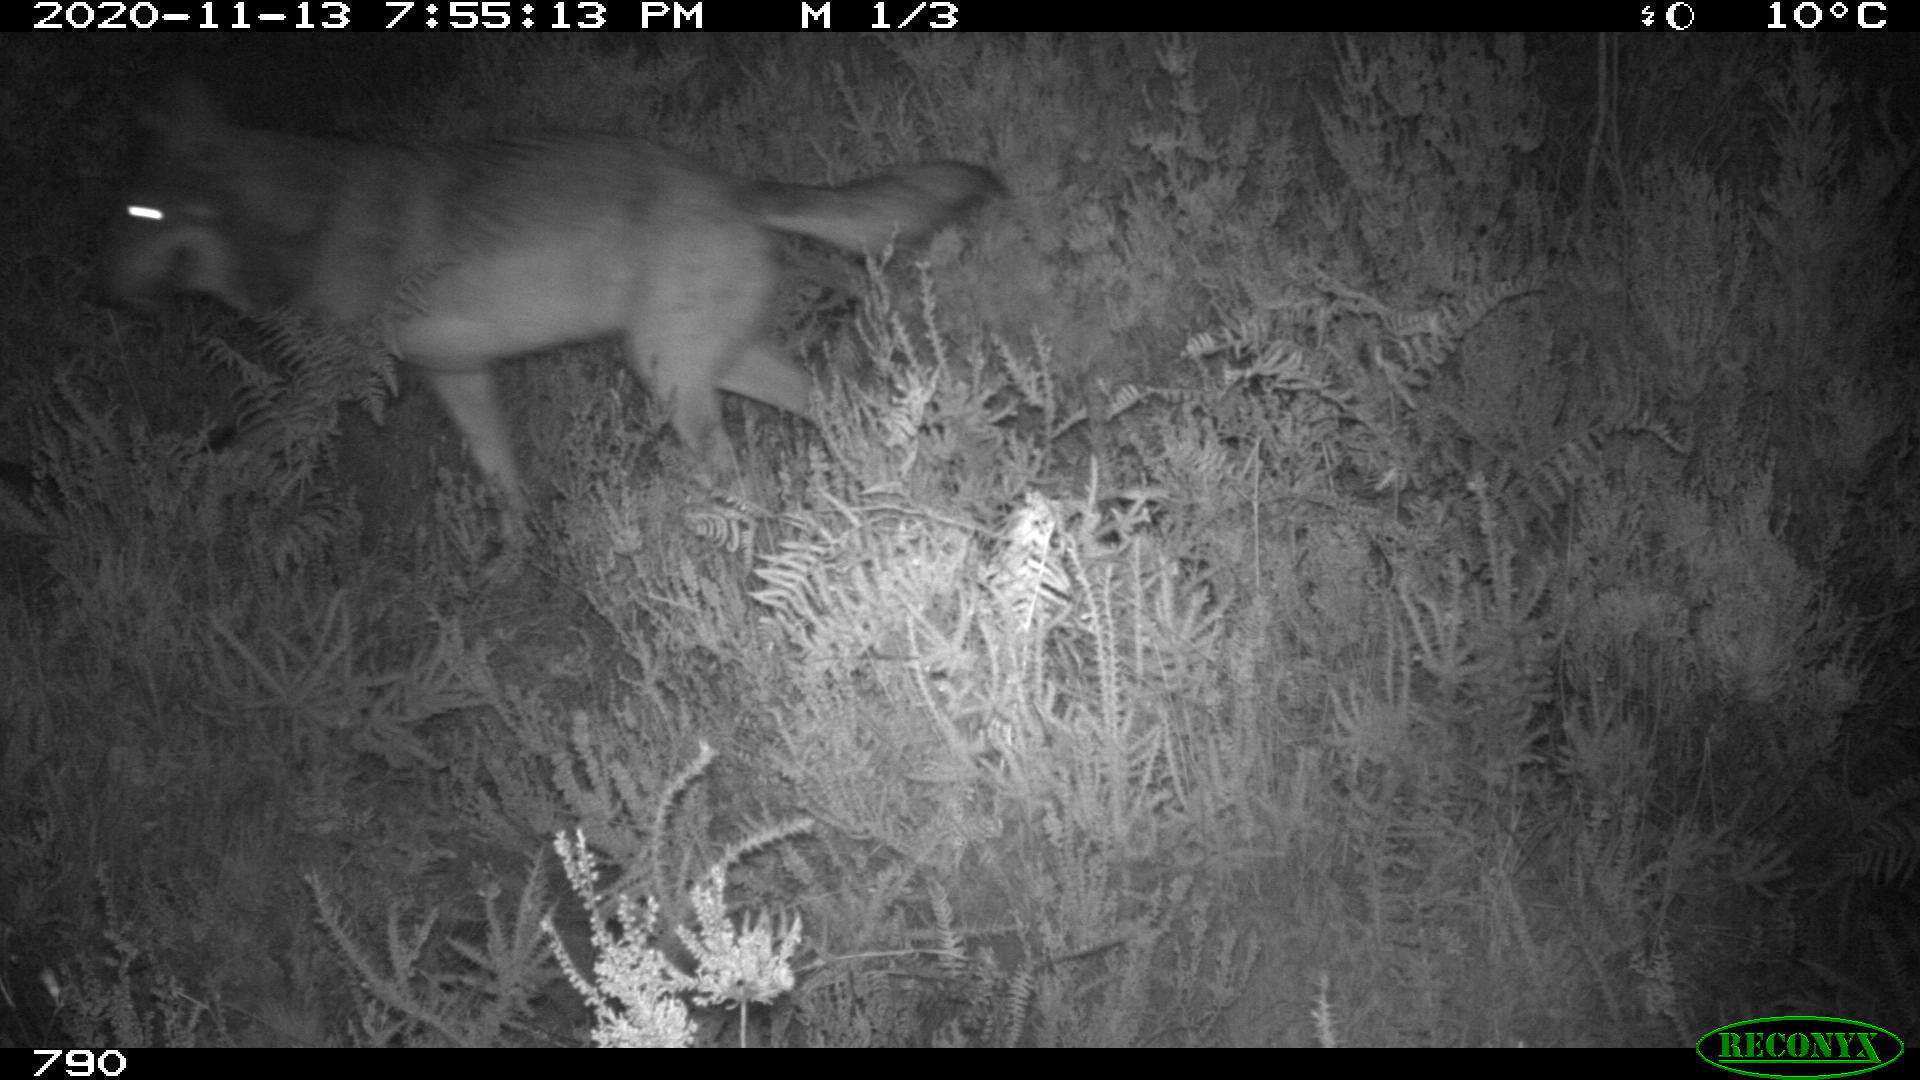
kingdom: Animalia
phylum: Chordata
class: Mammalia
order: Carnivora
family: Canidae
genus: Canis
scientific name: Canis lupus
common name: Gray wolf
